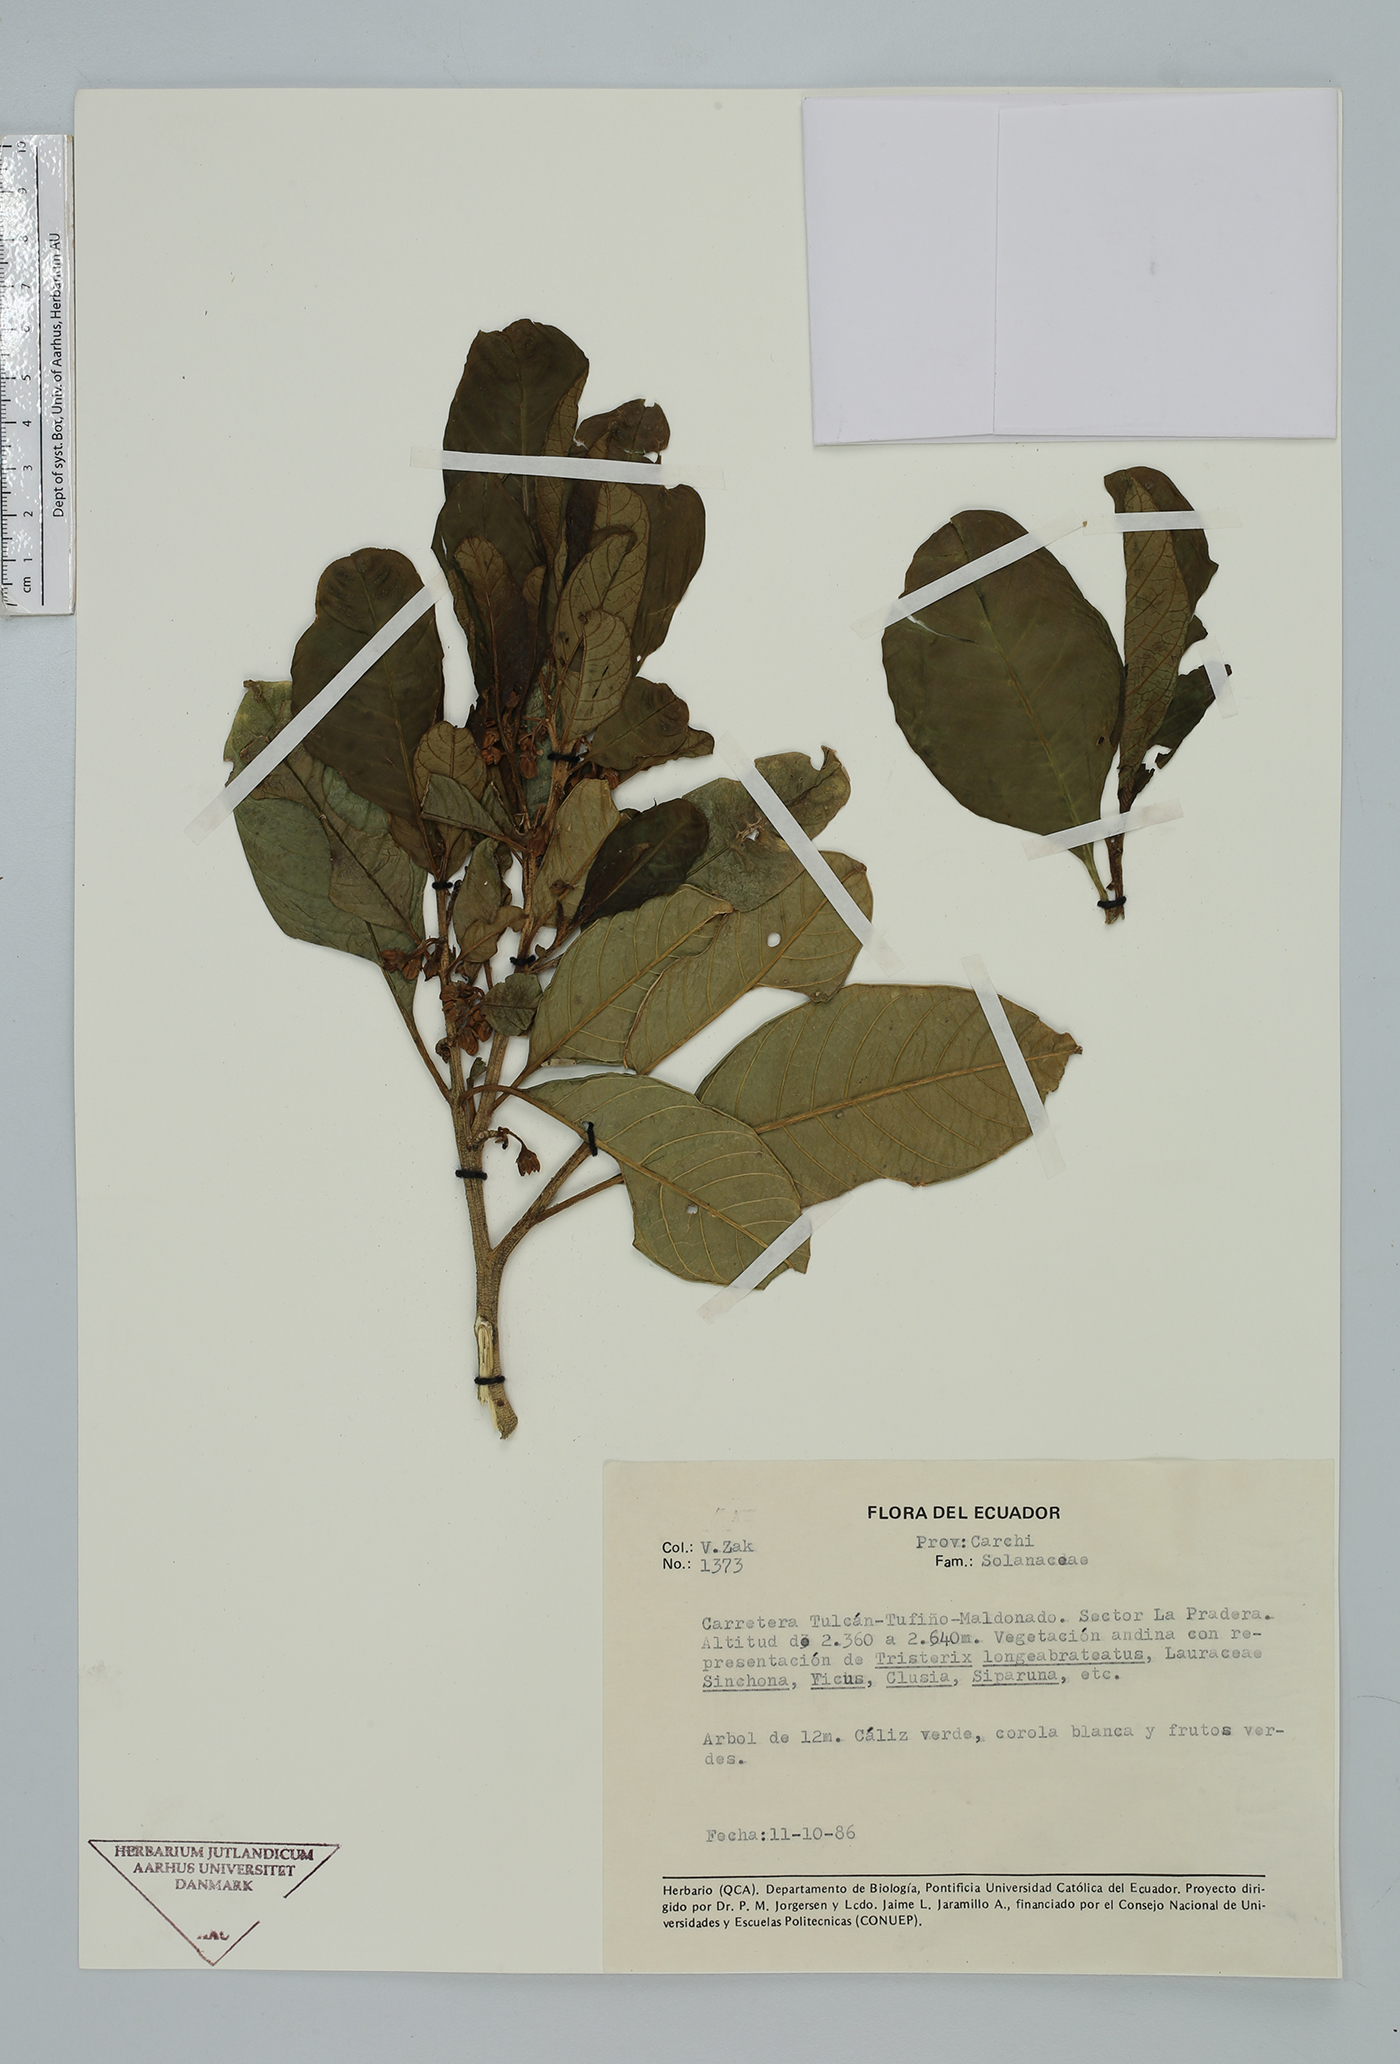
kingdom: Plantae
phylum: Tracheophyta
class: Magnoliopsida
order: Solanales
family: Solanaceae
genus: Solanum
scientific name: Solanum
